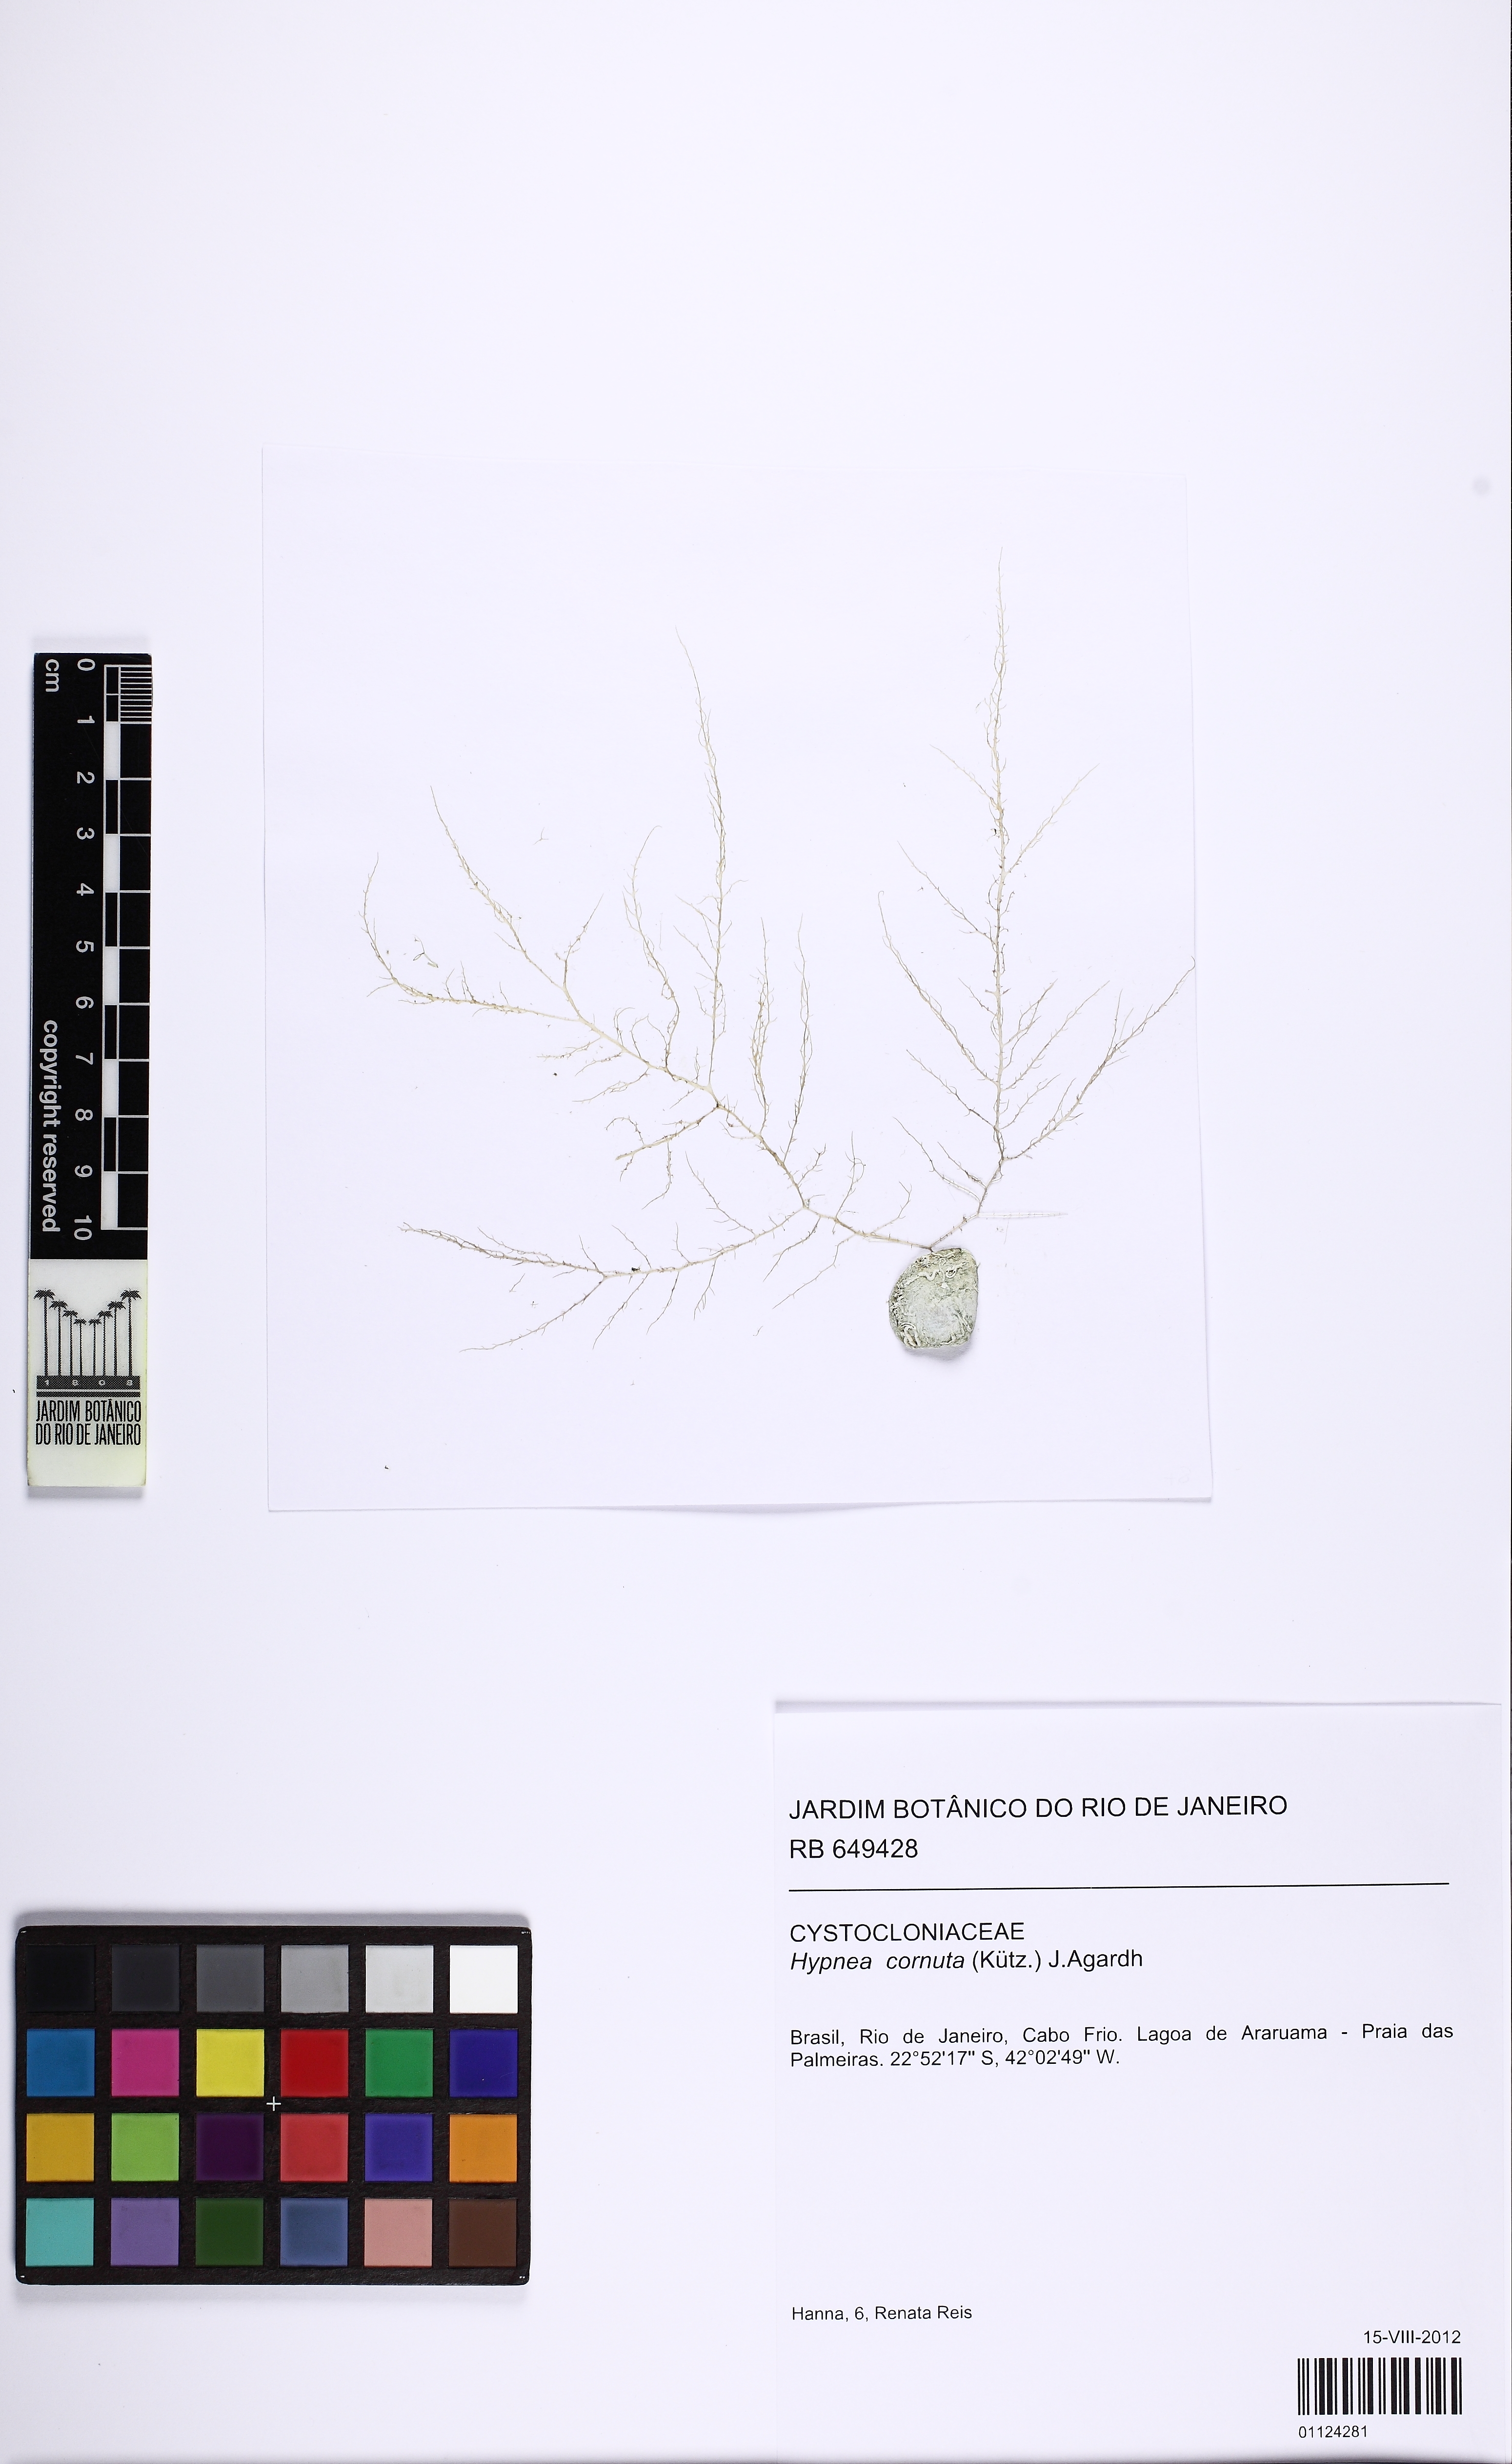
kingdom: Plantae
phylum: Rhodophyta
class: Florideophyceae
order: Gigartinales
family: Cystocloniaceae
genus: Hypnea
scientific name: Hypnea cornuta
